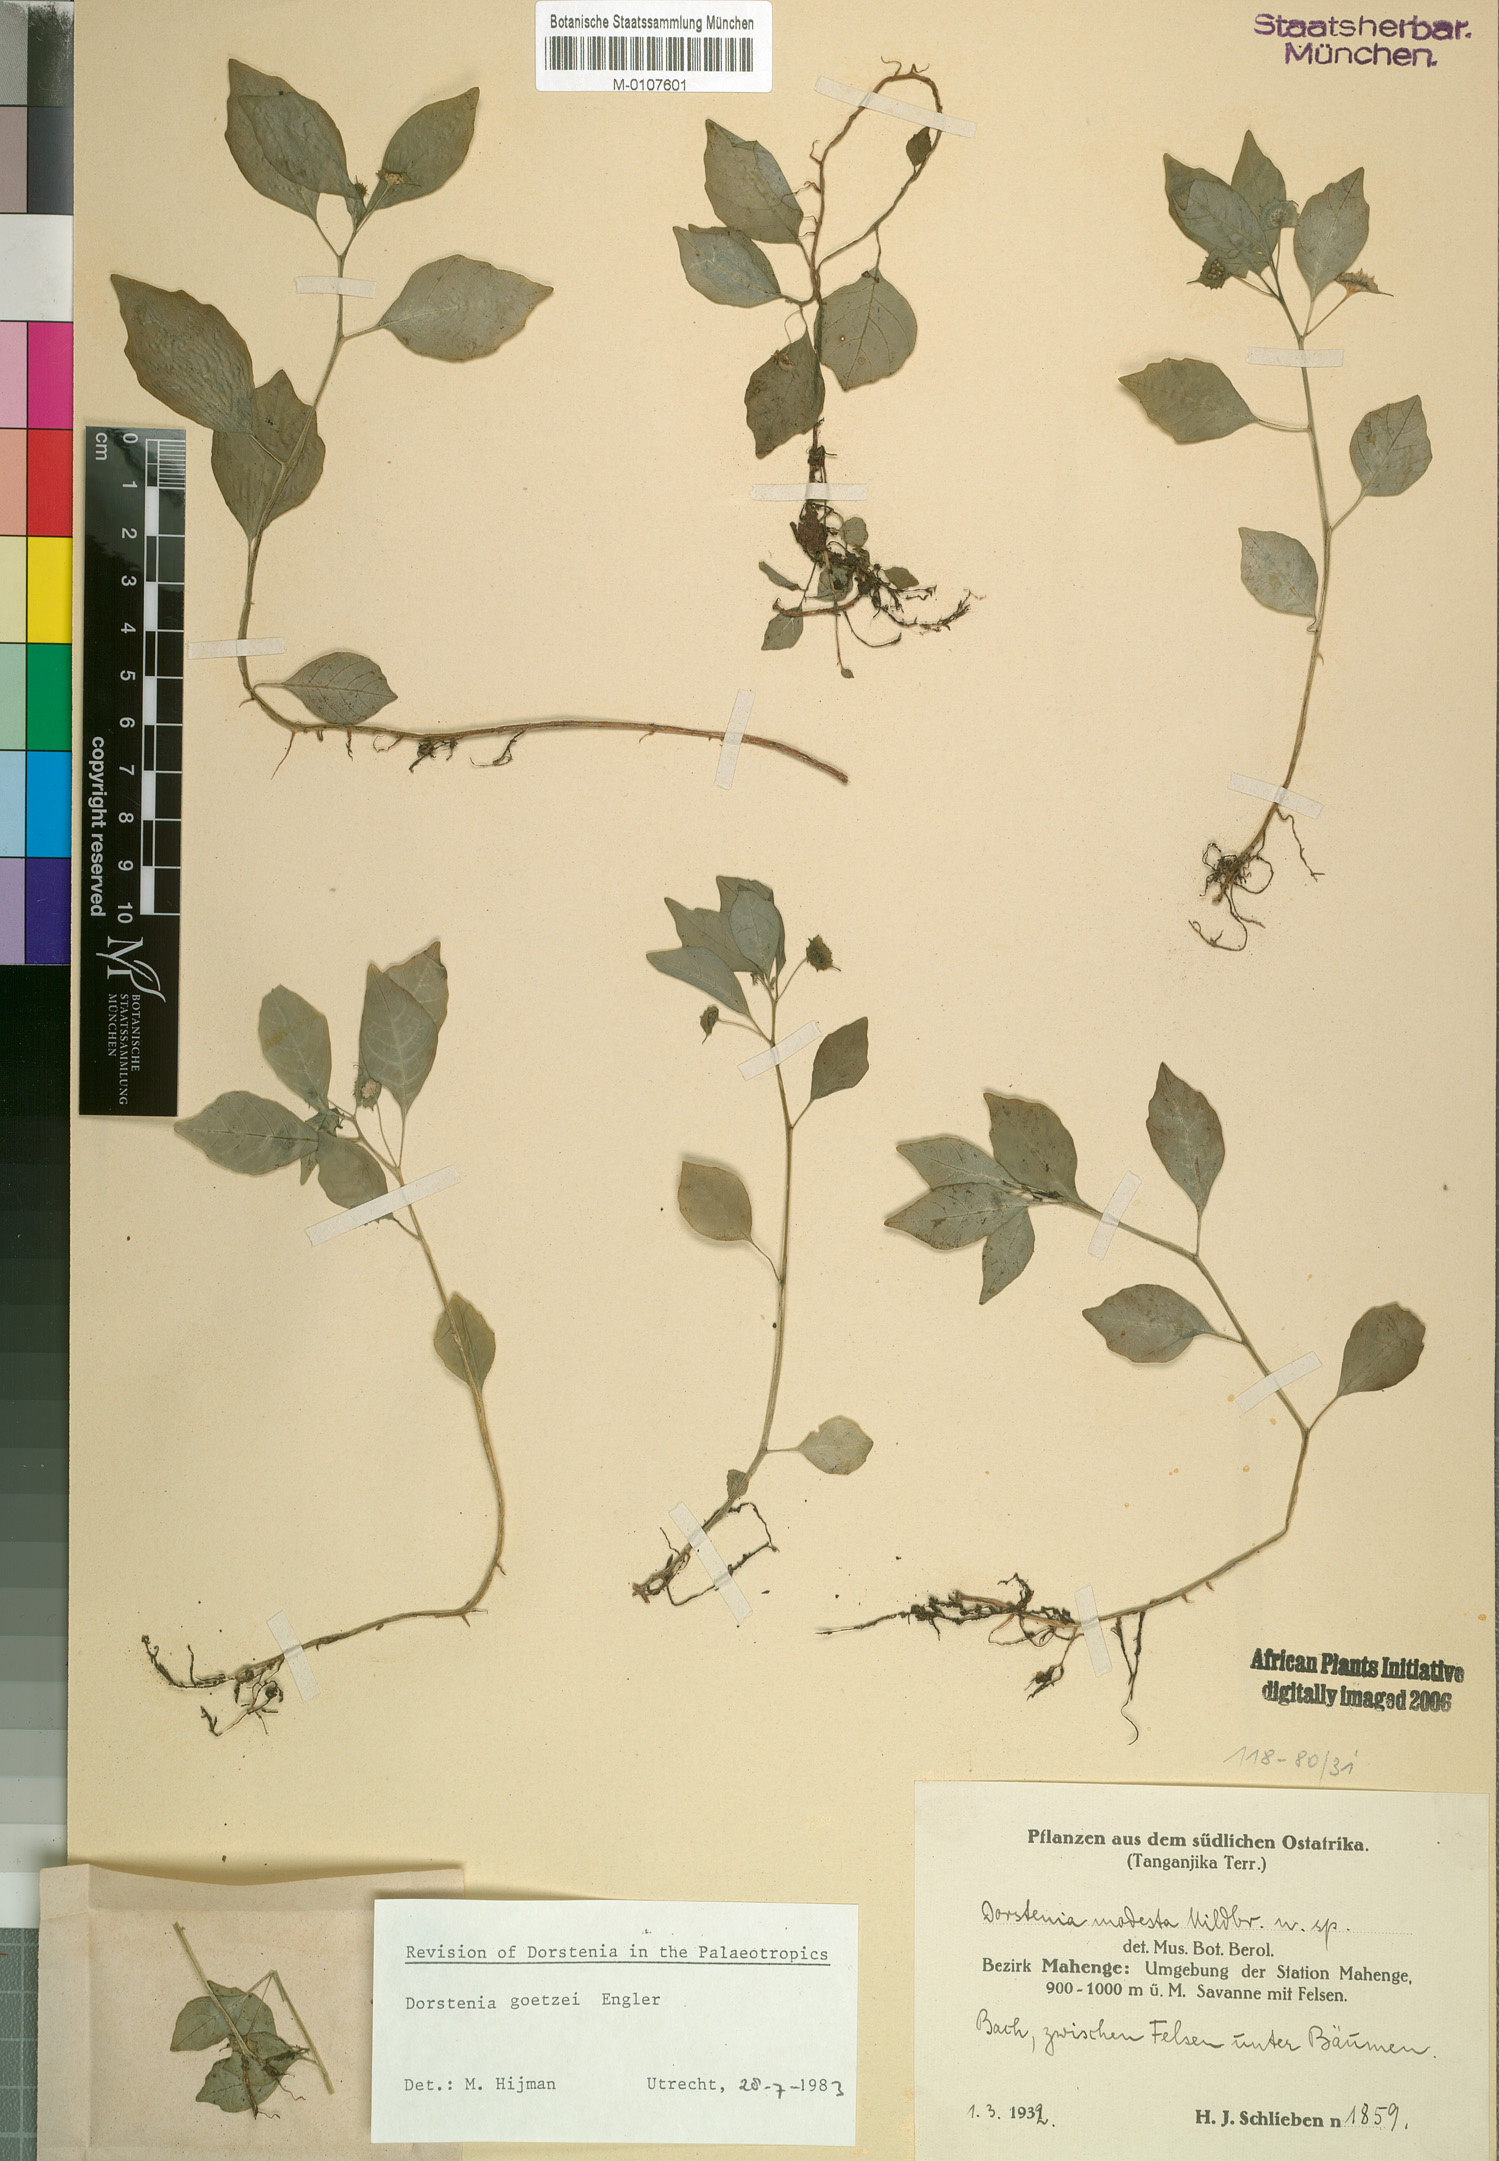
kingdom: Plantae
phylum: Tracheophyta
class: Magnoliopsida
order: Rosales
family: Moraceae
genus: Dorstenia
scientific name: Dorstenia goetzei
